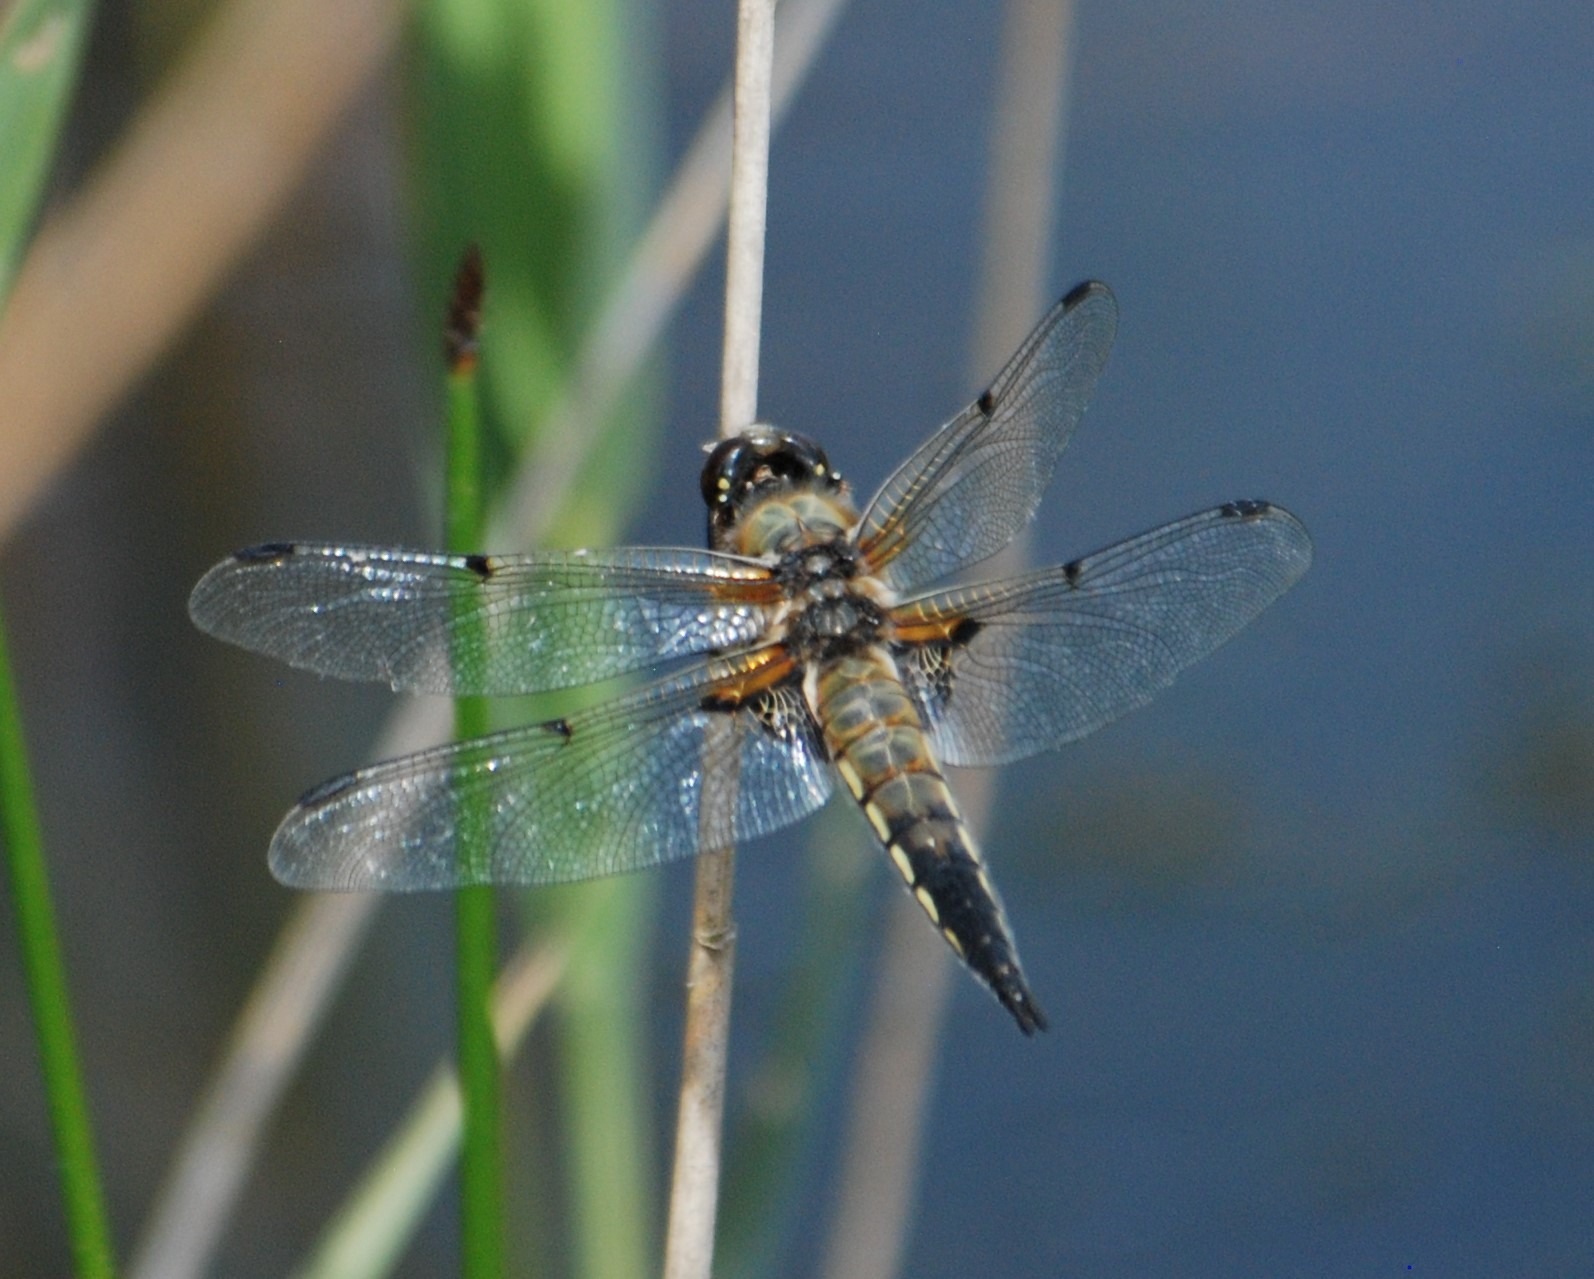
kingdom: Animalia
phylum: Arthropoda
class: Insecta
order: Odonata
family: Libellulidae
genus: Libellula
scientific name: Libellula quadrimaculata
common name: Fireplettet libel
